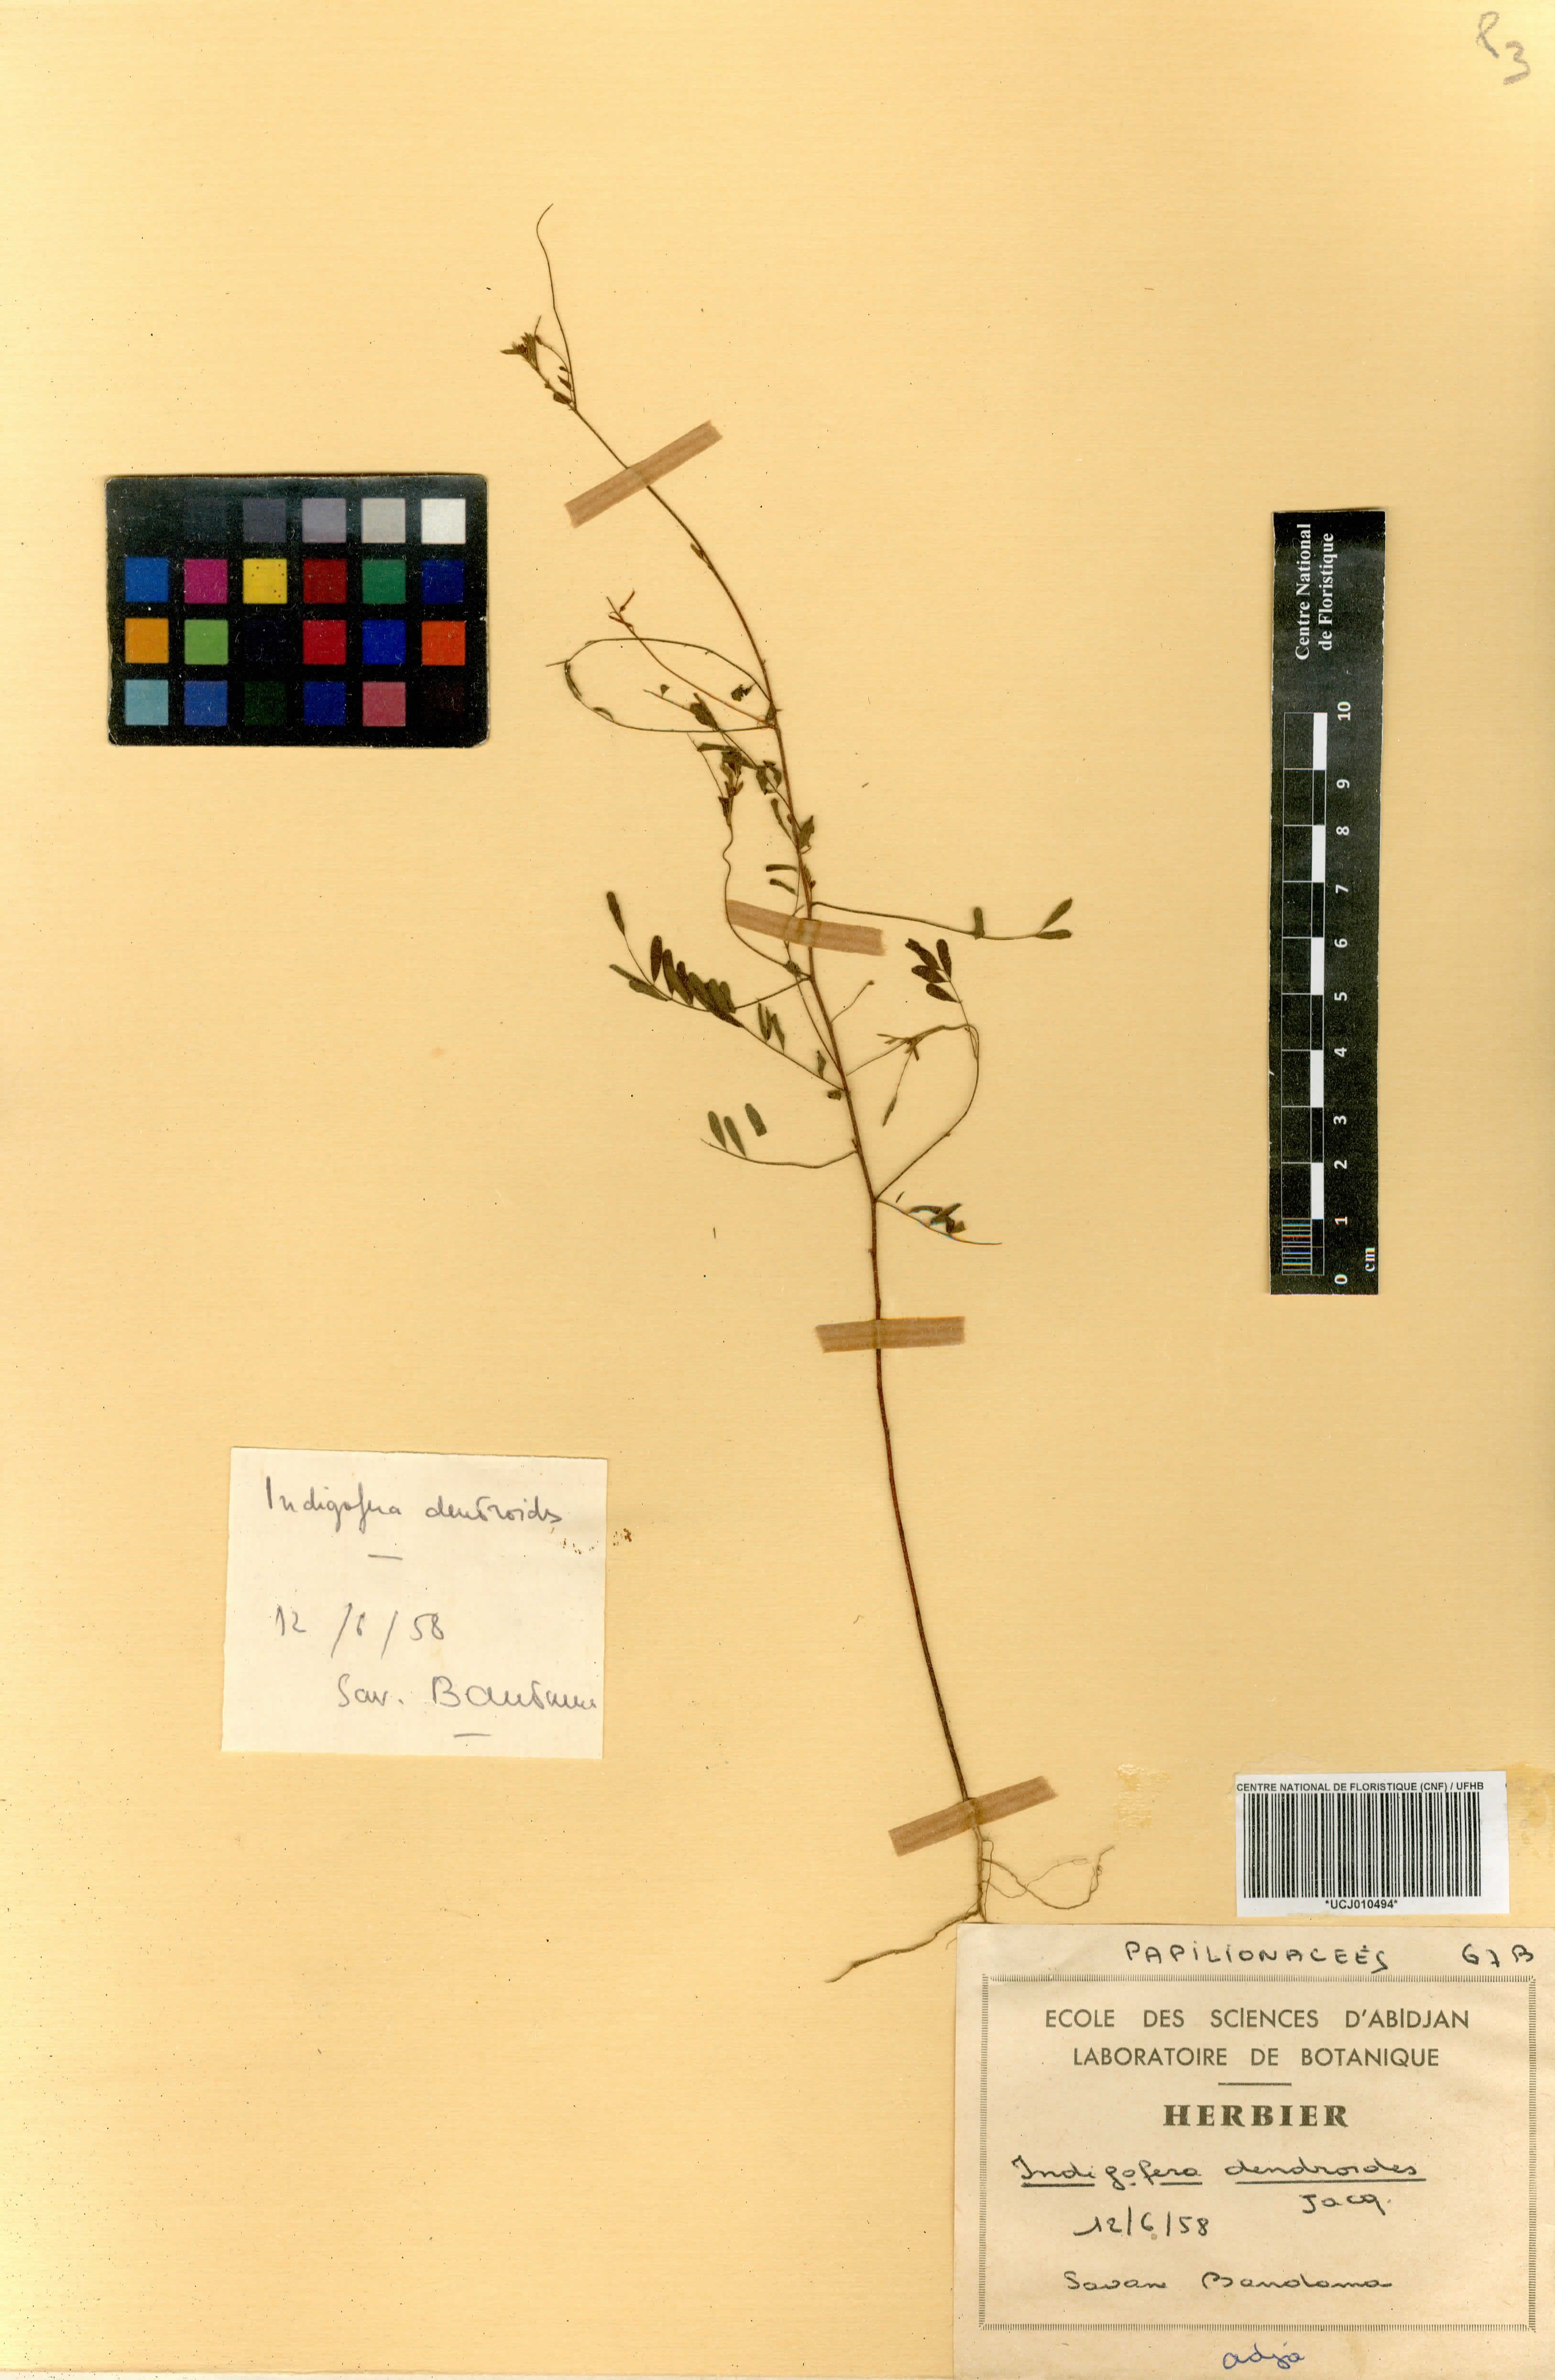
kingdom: Plantae
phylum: Tracheophyta
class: Magnoliopsida
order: Fabales
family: Fabaceae
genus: Indigofera
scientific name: Indigofera dendroides
